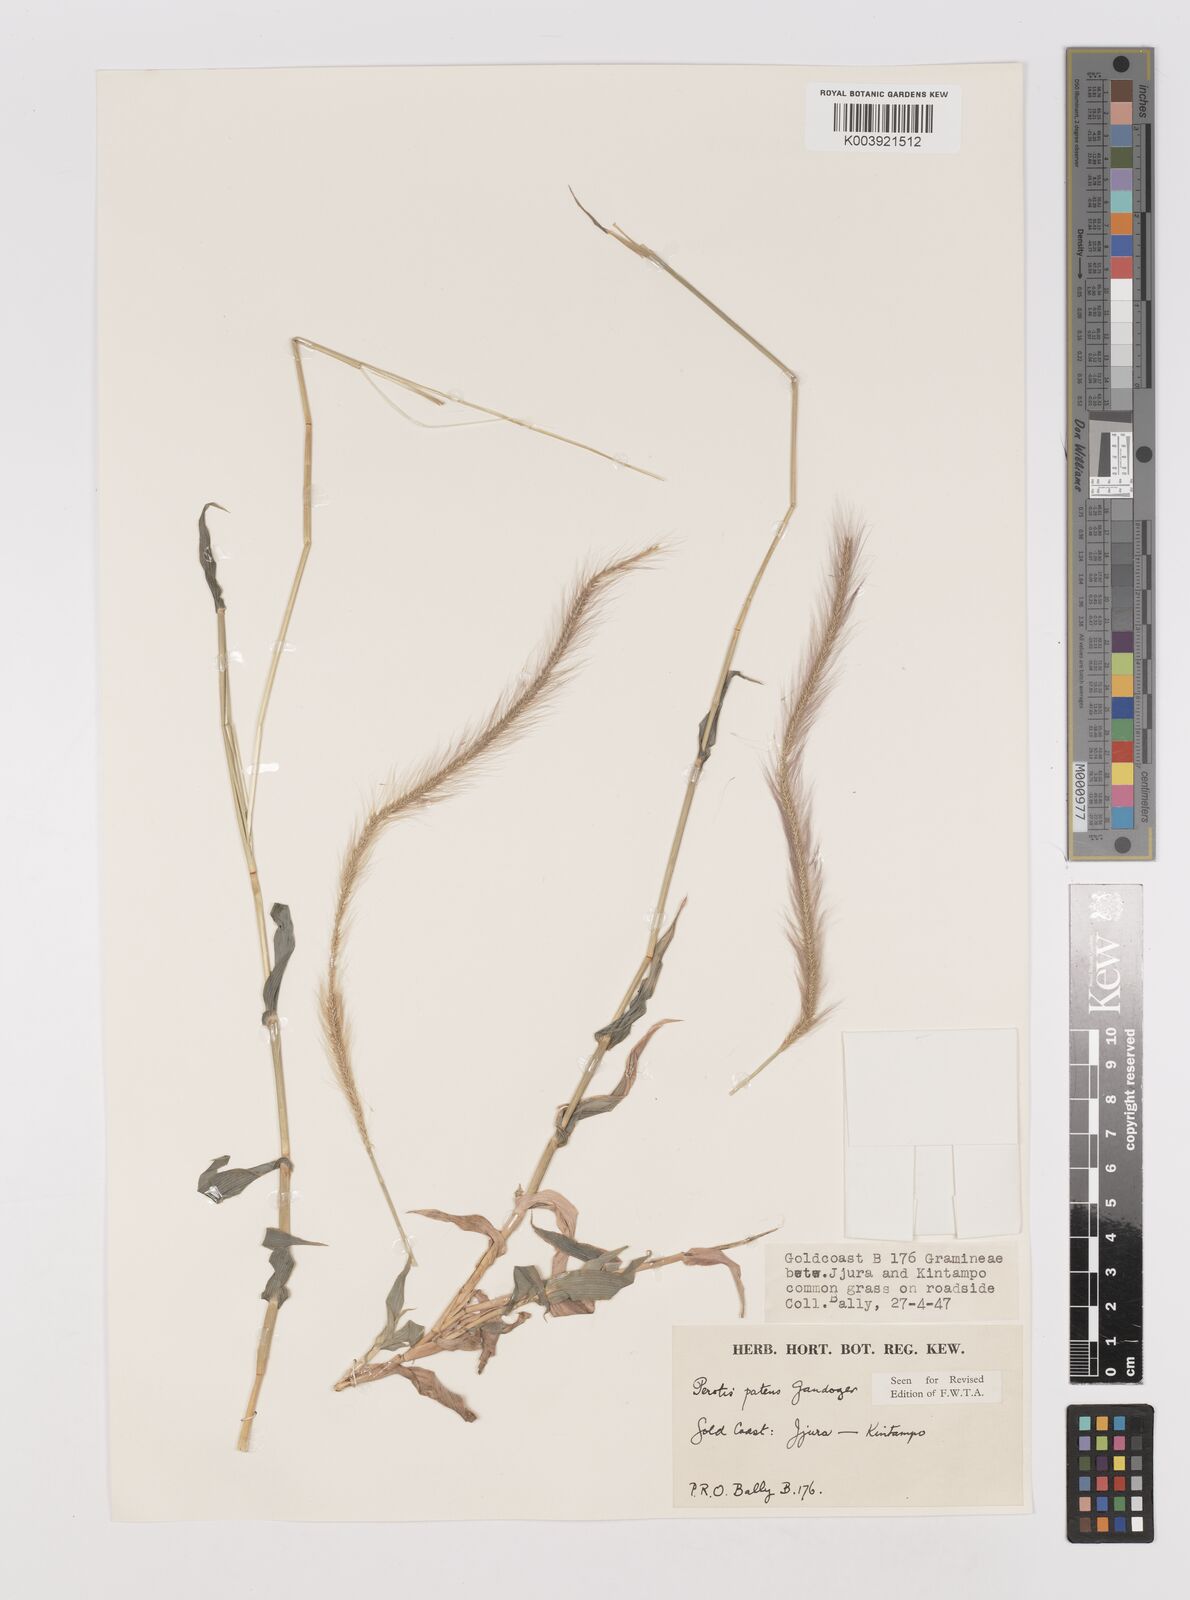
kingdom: Plantae
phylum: Tracheophyta
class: Liliopsida
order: Poales
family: Poaceae
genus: Perotis
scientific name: Perotis patens
